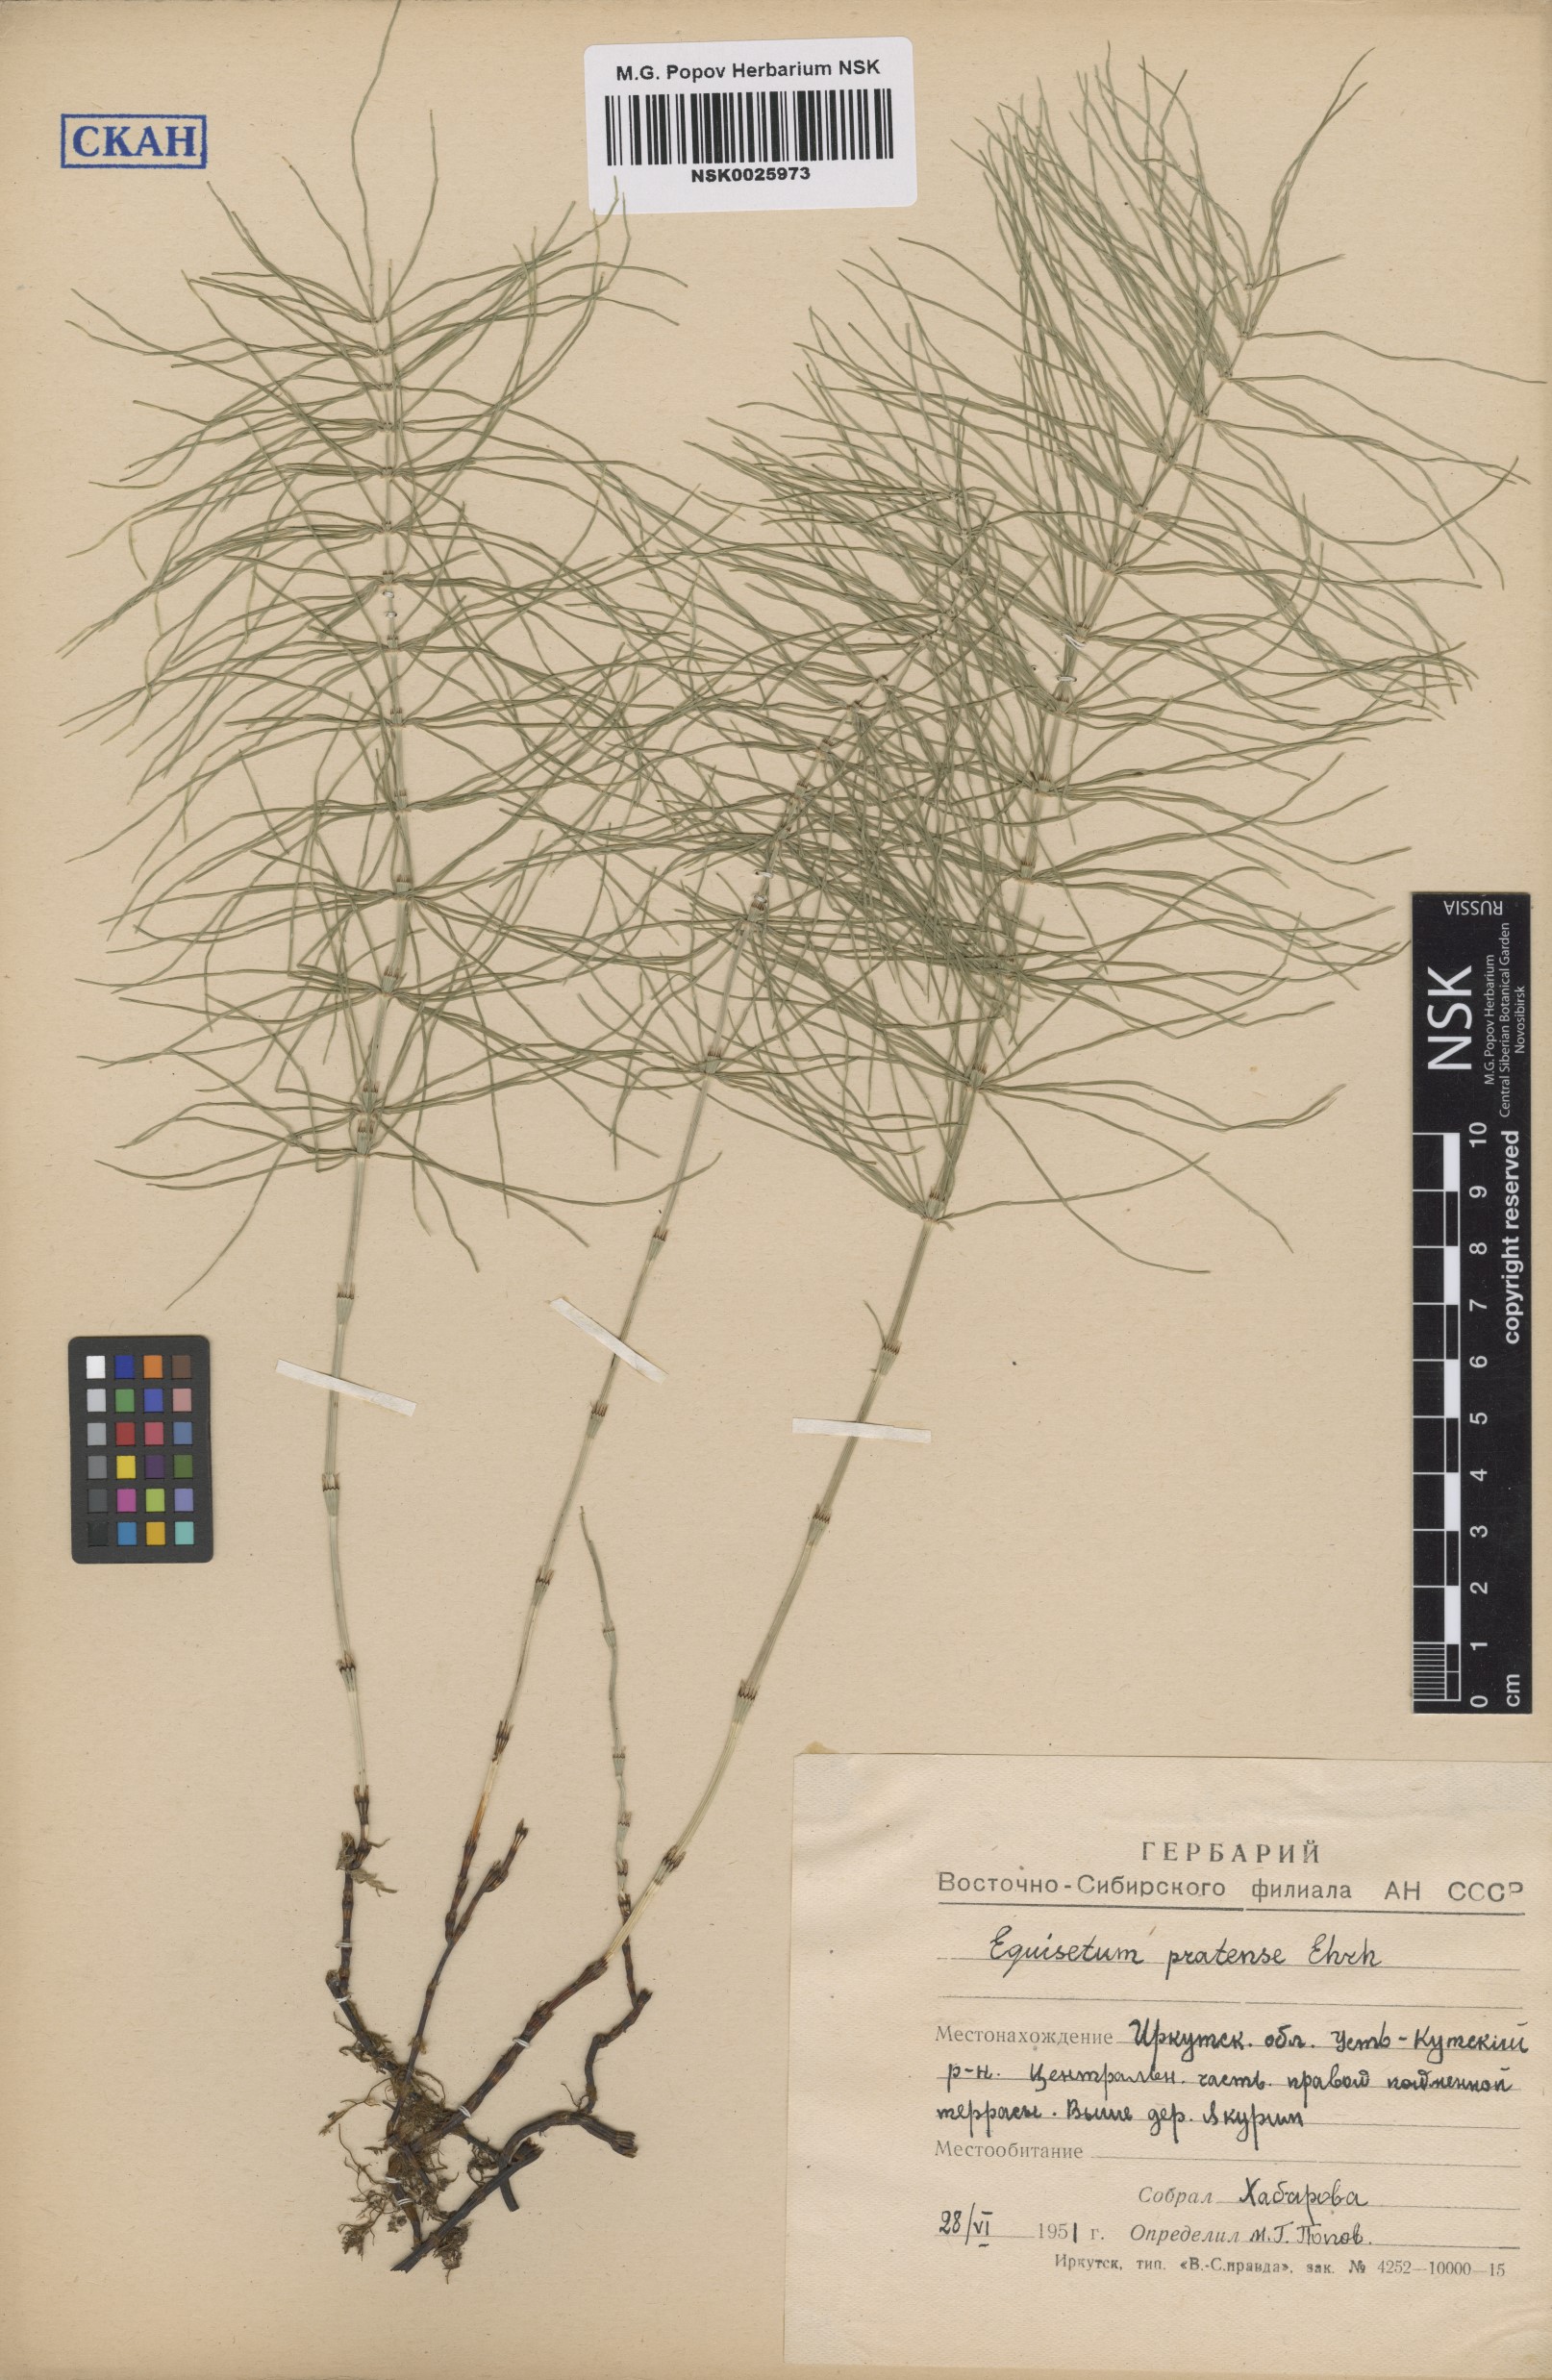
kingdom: Plantae
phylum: Tracheophyta
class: Polypodiopsida
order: Equisetales
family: Equisetaceae
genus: Equisetum
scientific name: Equisetum pratense
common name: Meadow horsetail
